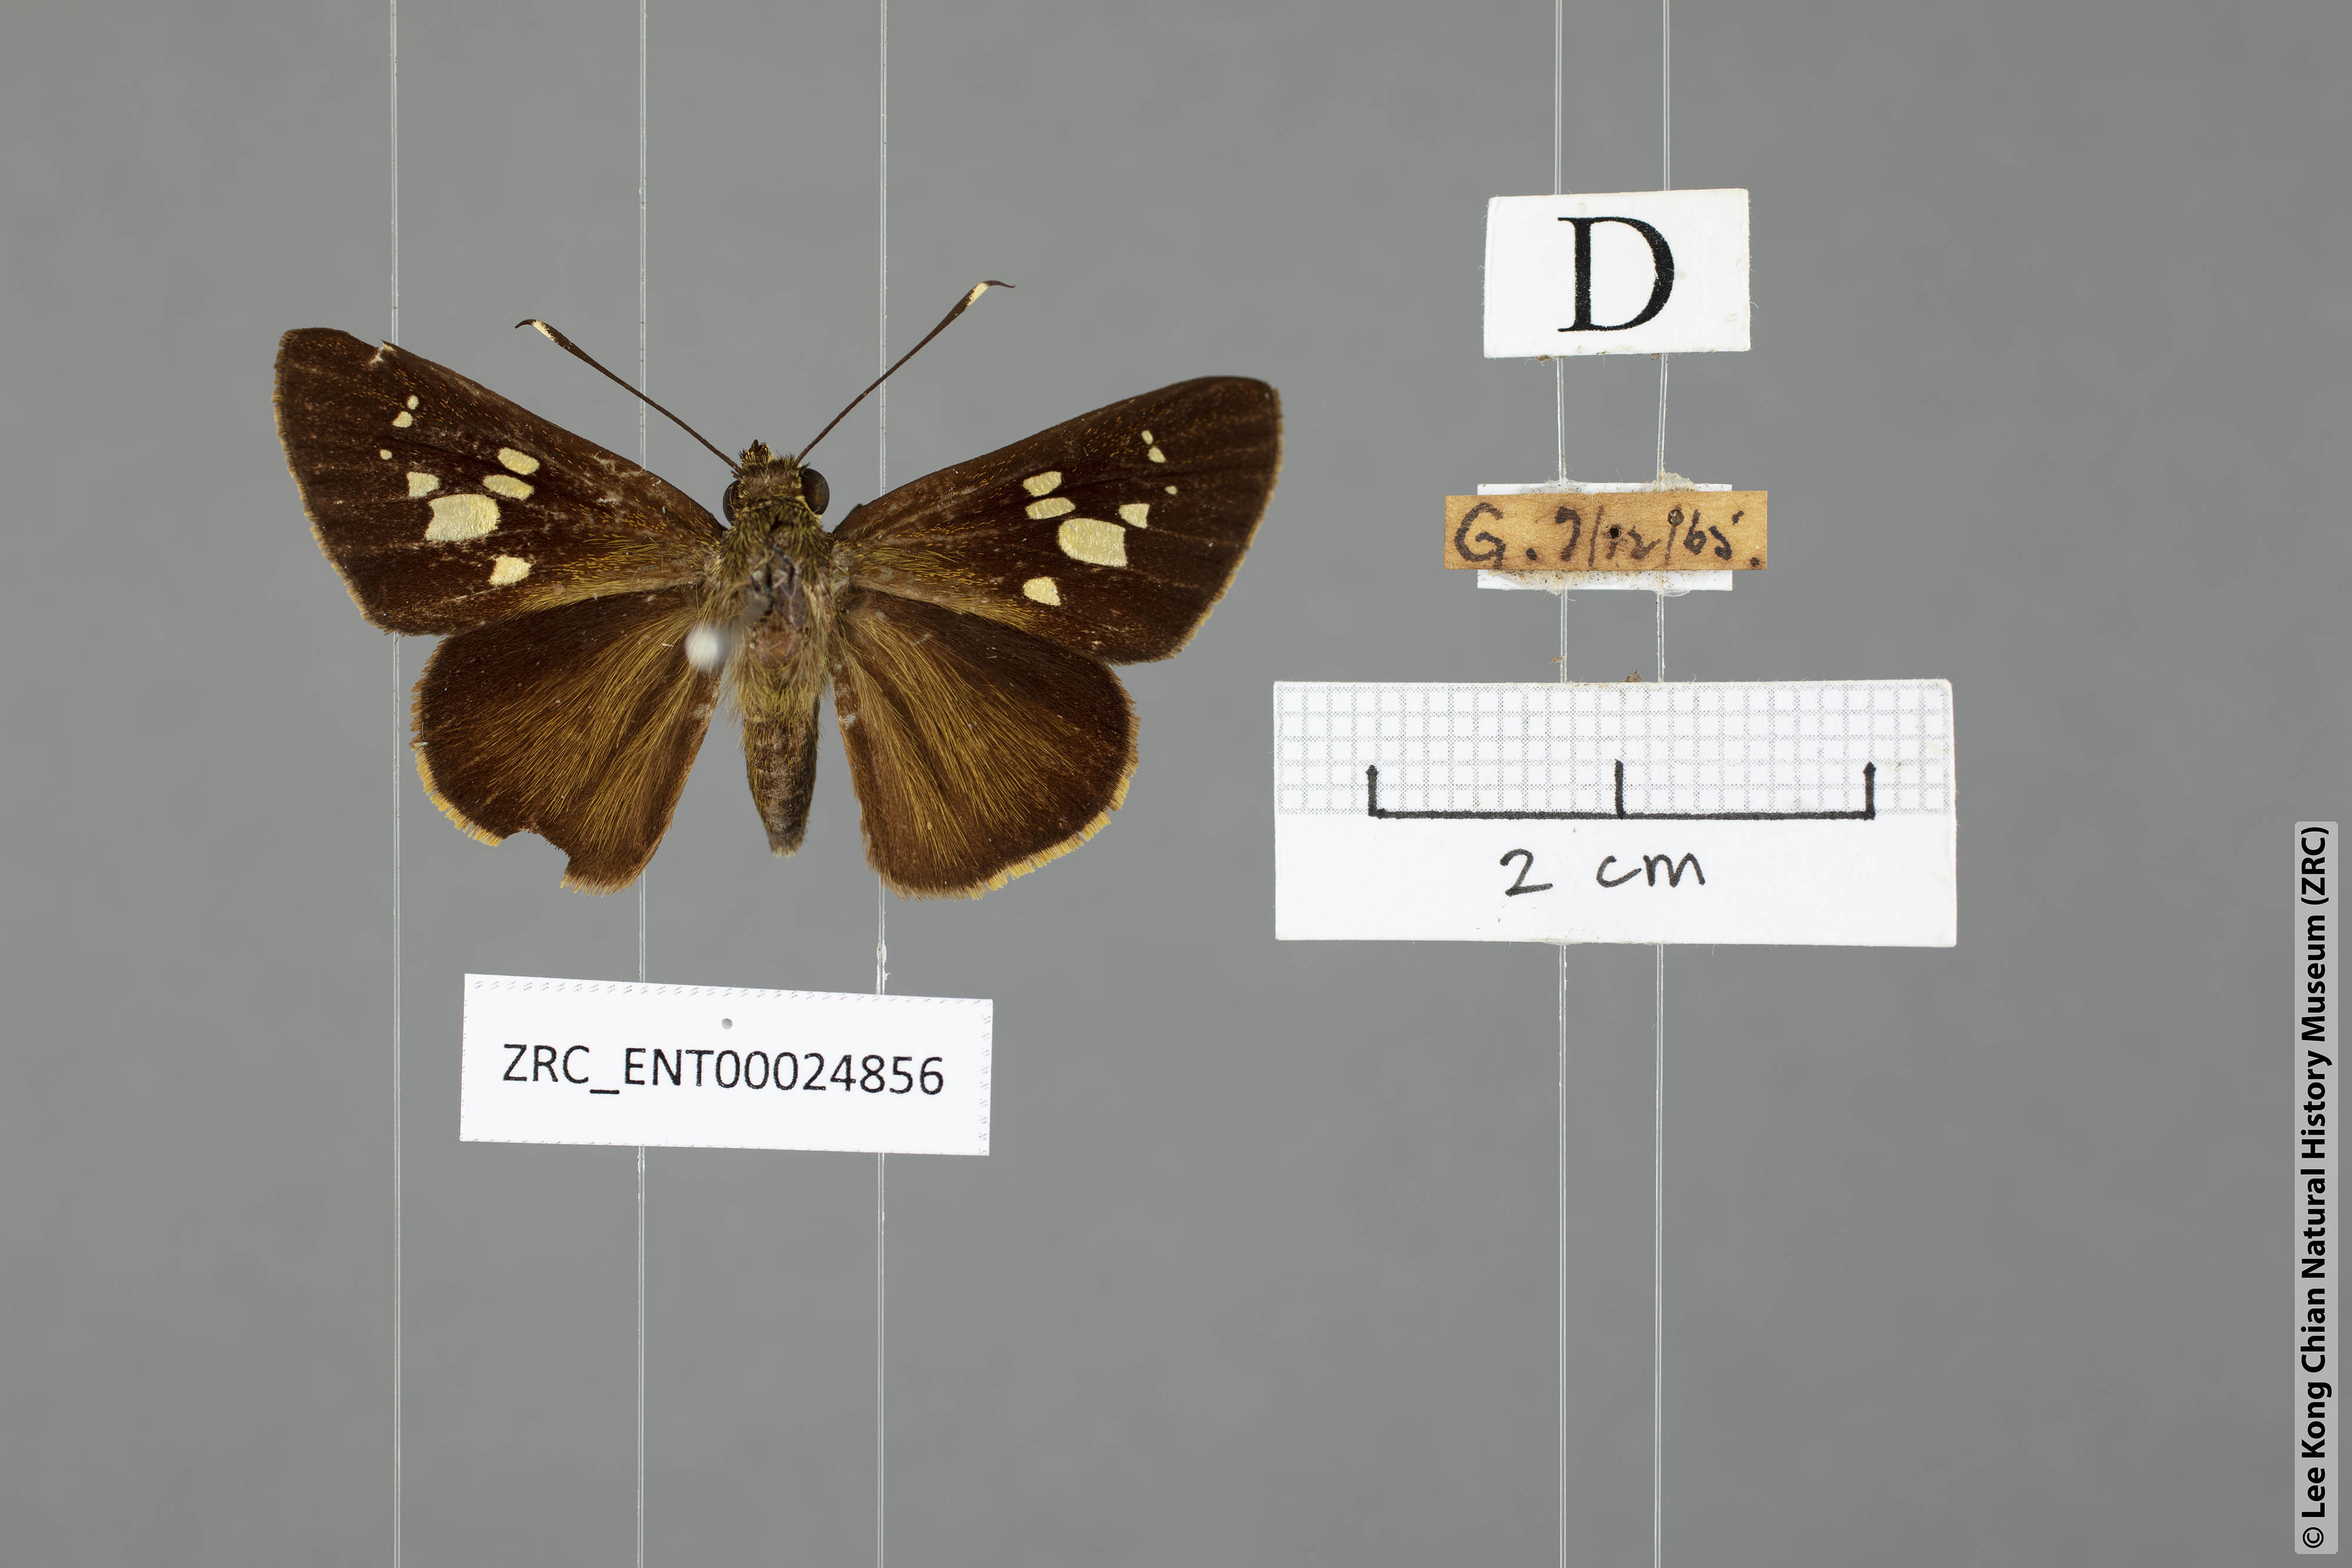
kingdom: Animalia
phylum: Arthropoda
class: Insecta
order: Lepidoptera
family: Hesperiidae
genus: Isma
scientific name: Isma
